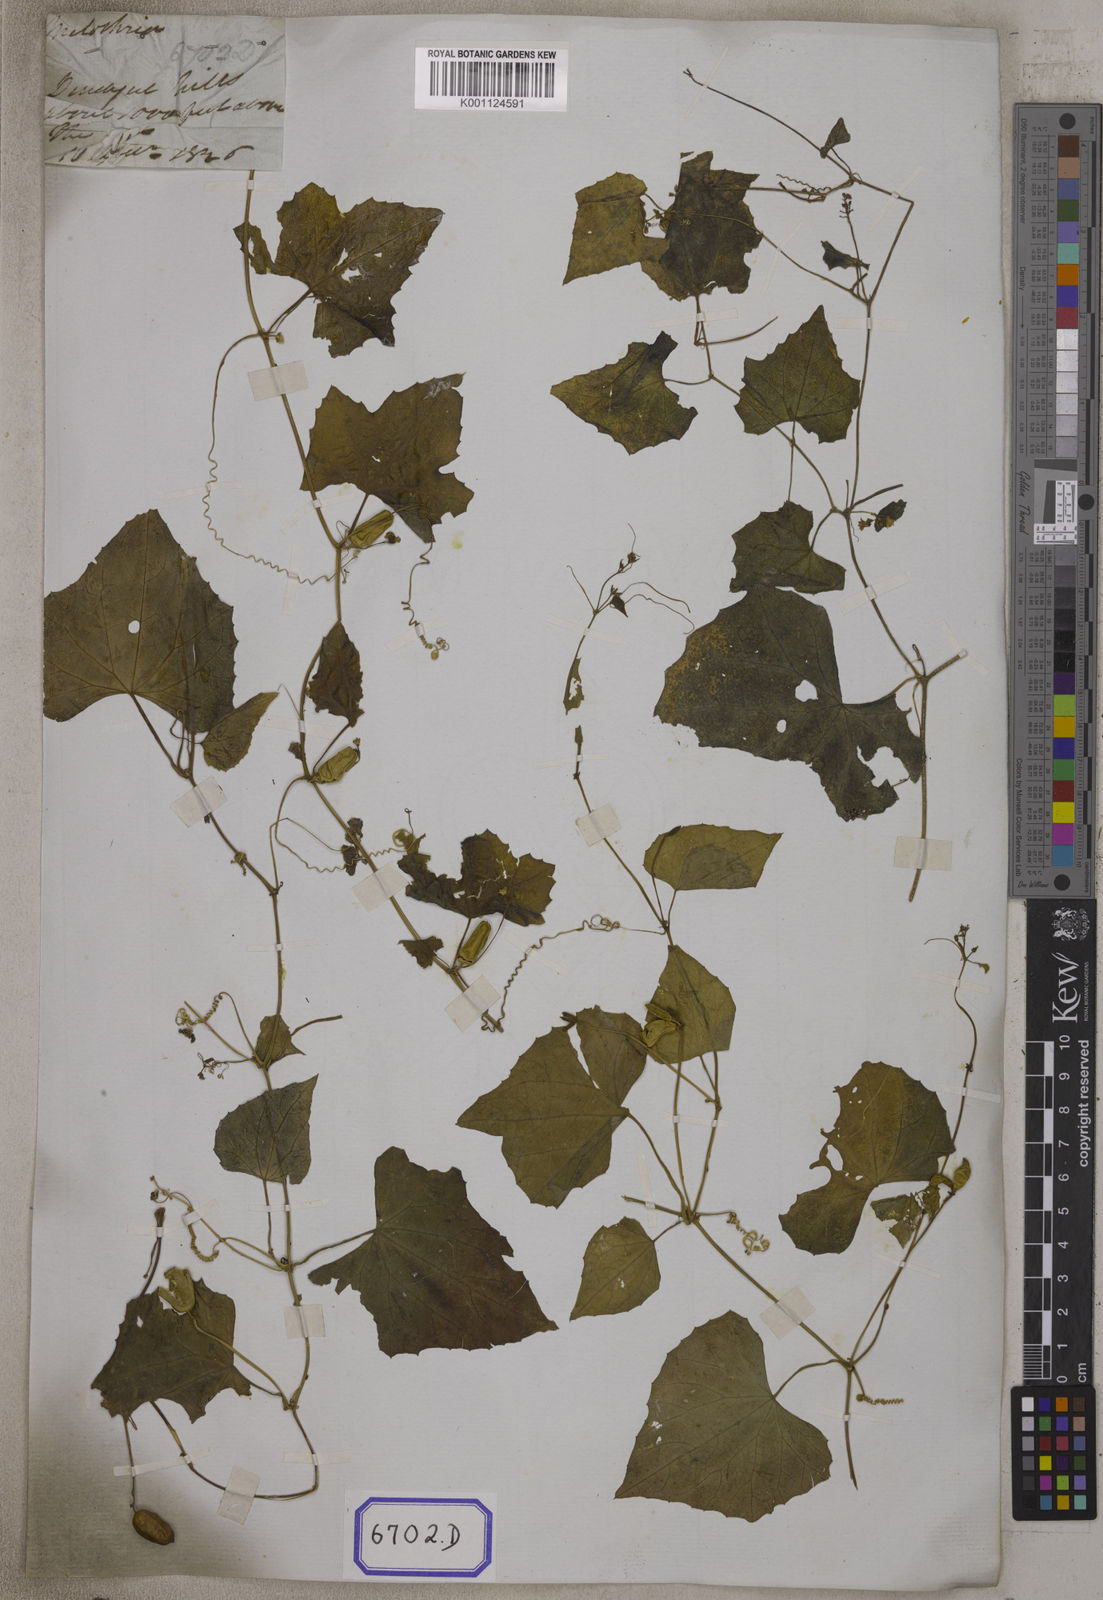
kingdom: Plantae
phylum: Tracheophyta
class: Magnoliopsida
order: Cucurbitales
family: Cucurbitaceae
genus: Bryonia
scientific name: Bryonia
